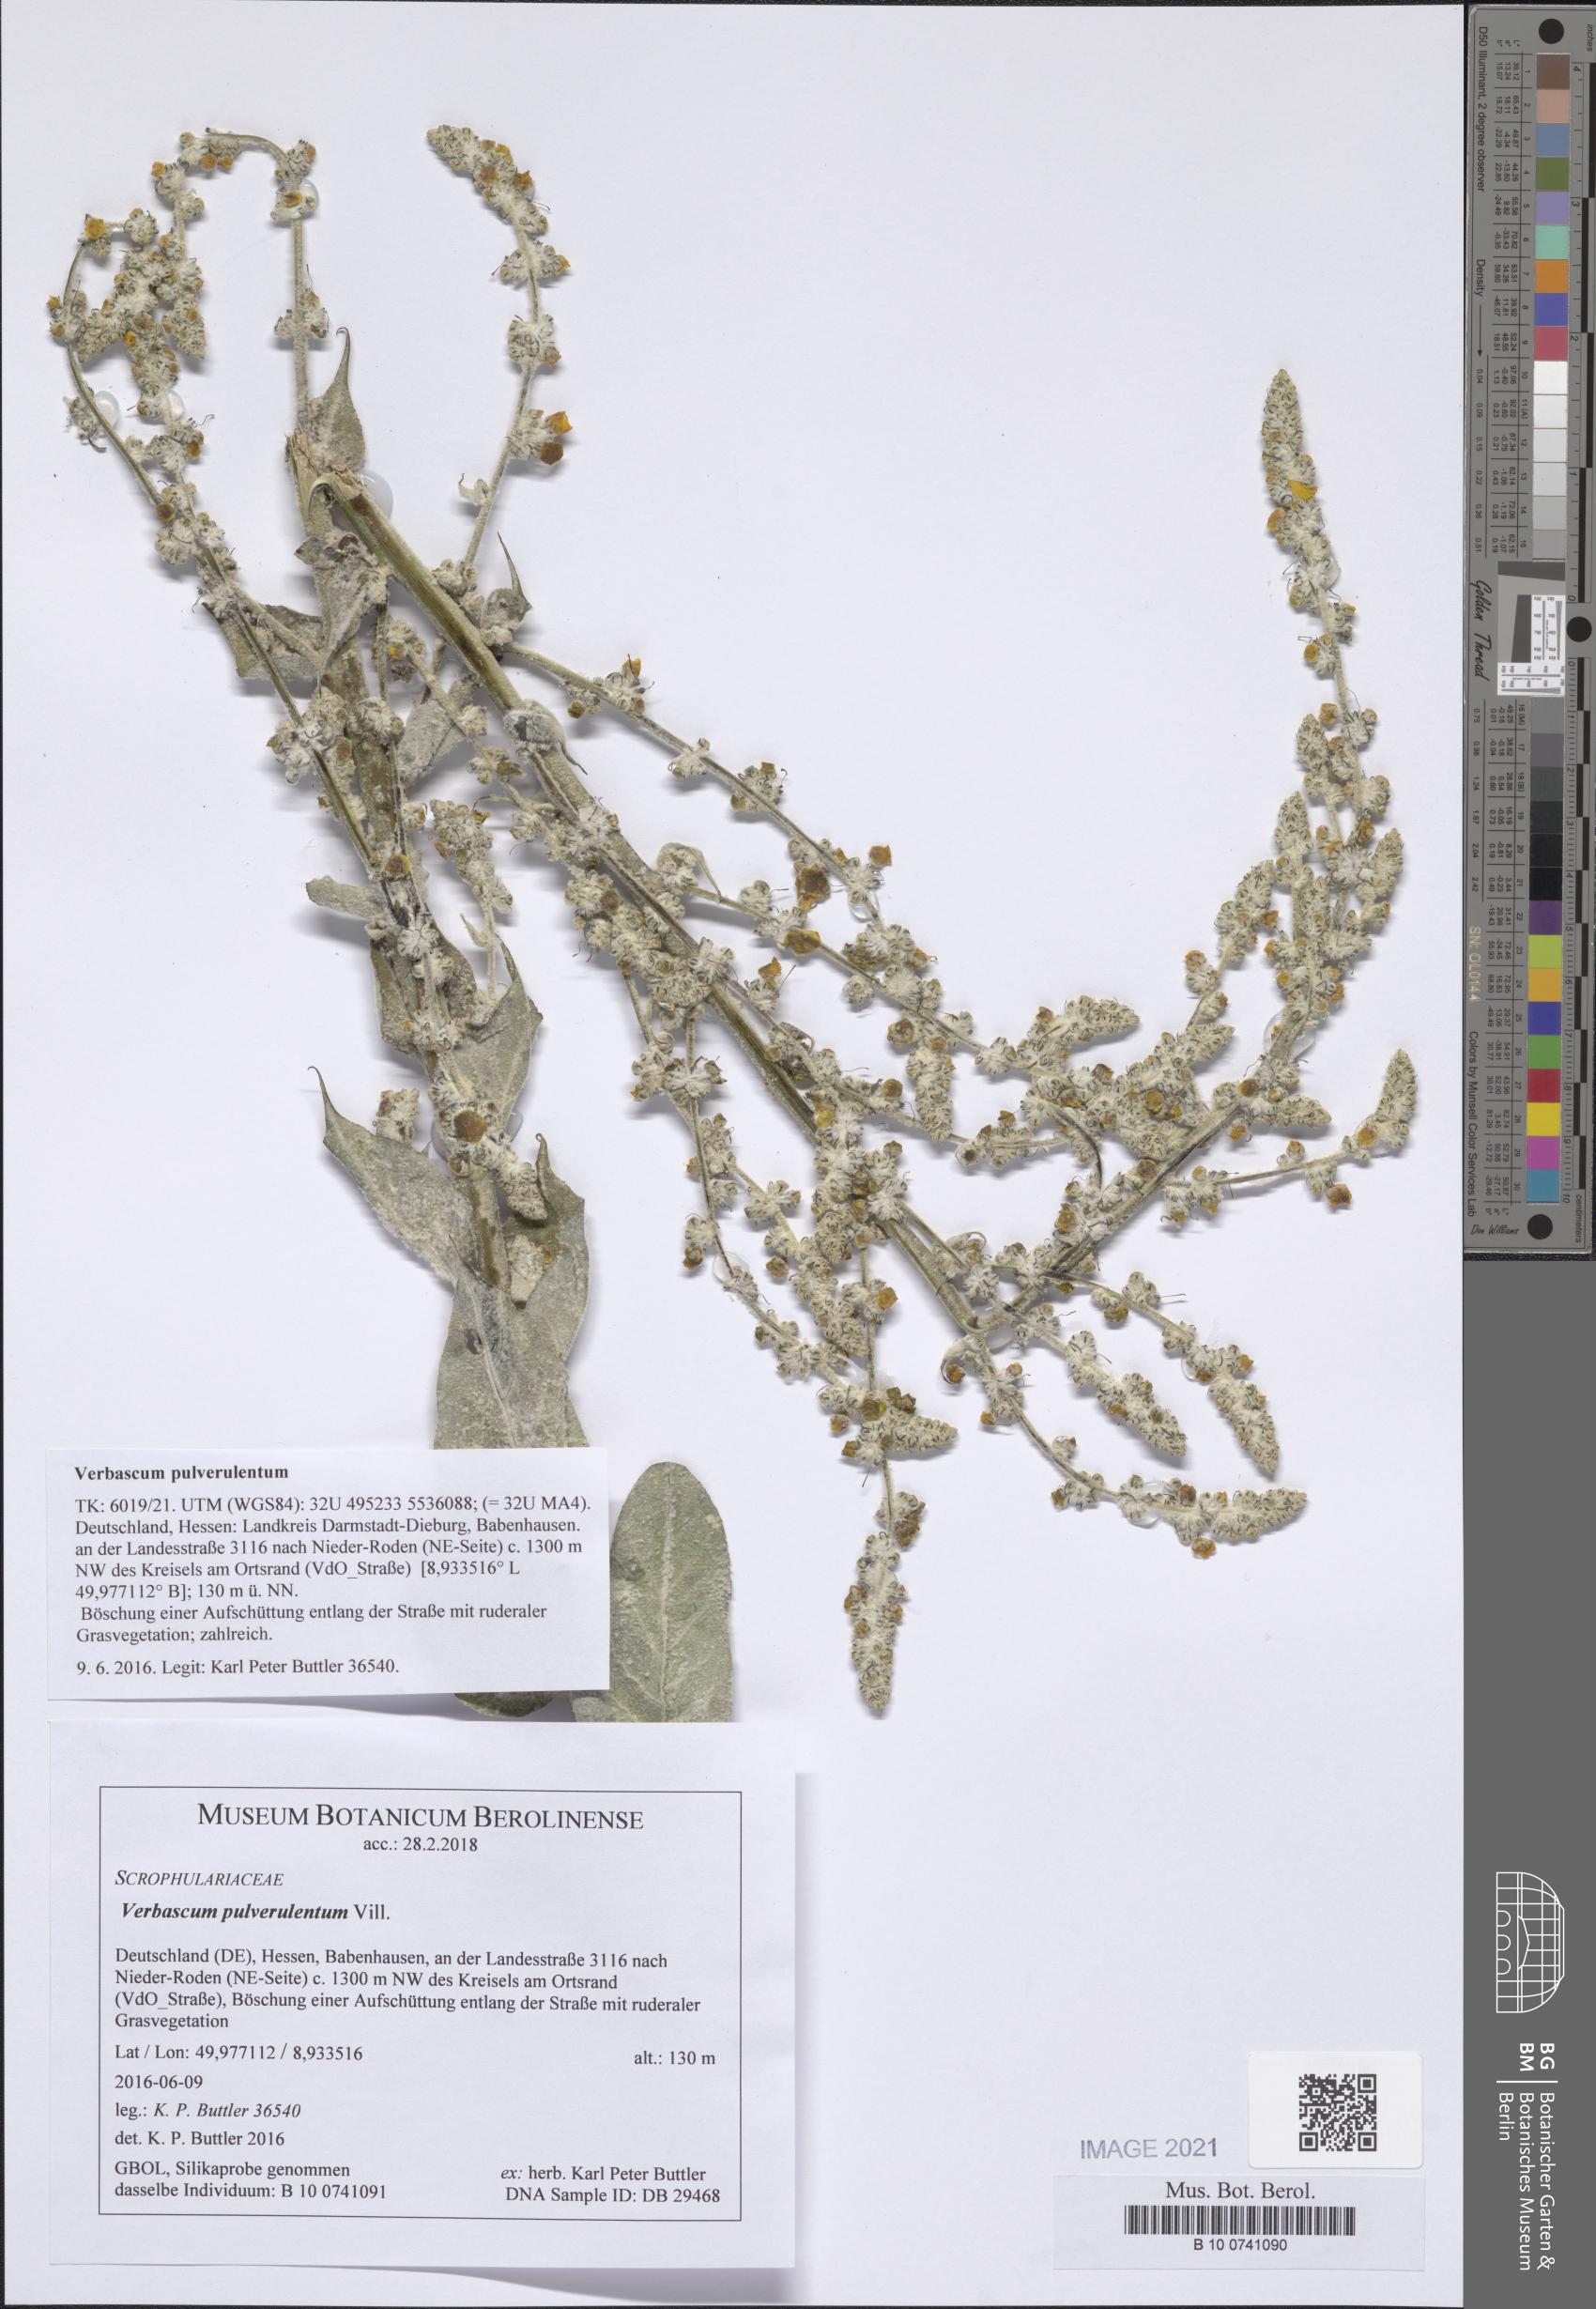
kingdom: Plantae
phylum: Tracheophyta
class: Magnoliopsida
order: Lamiales
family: Scrophulariaceae
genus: Verbascum
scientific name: Verbascum pulverulentum
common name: Broad-leaf mullein
